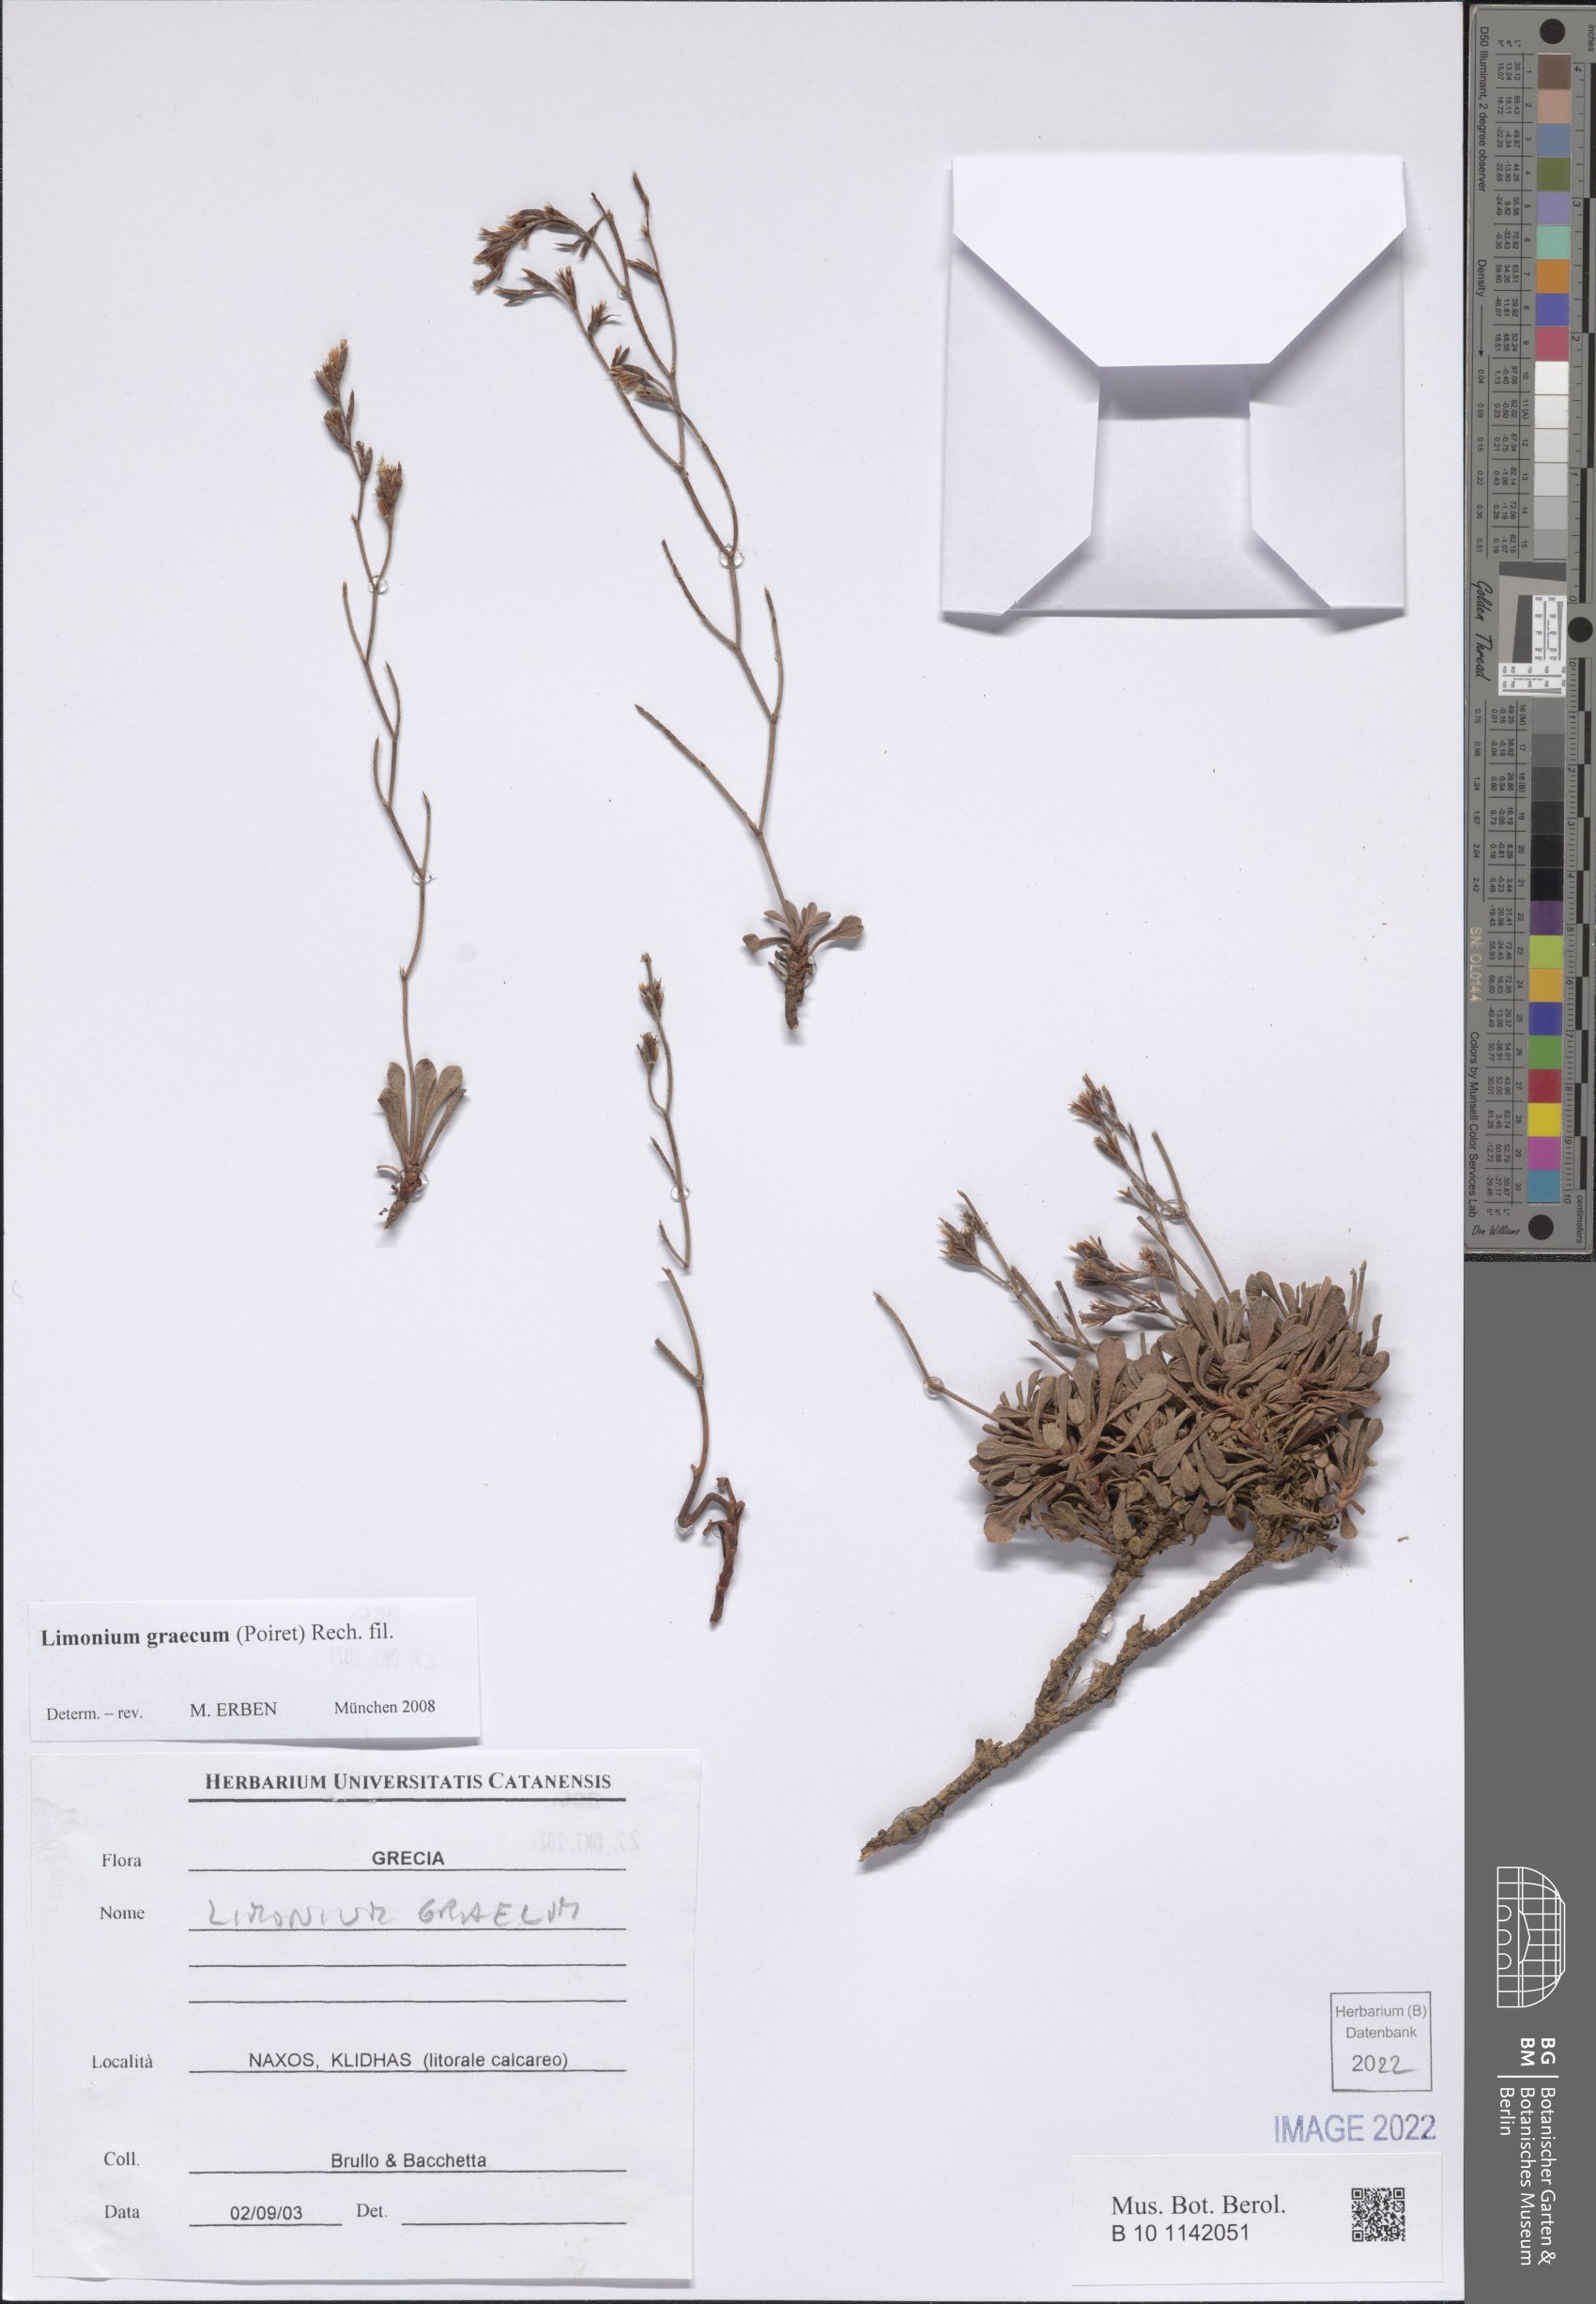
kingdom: Plantae
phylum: Tracheophyta
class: Magnoliopsida
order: Caryophyllales
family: Plumbaginaceae
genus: Limonium
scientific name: Limonium graecum
